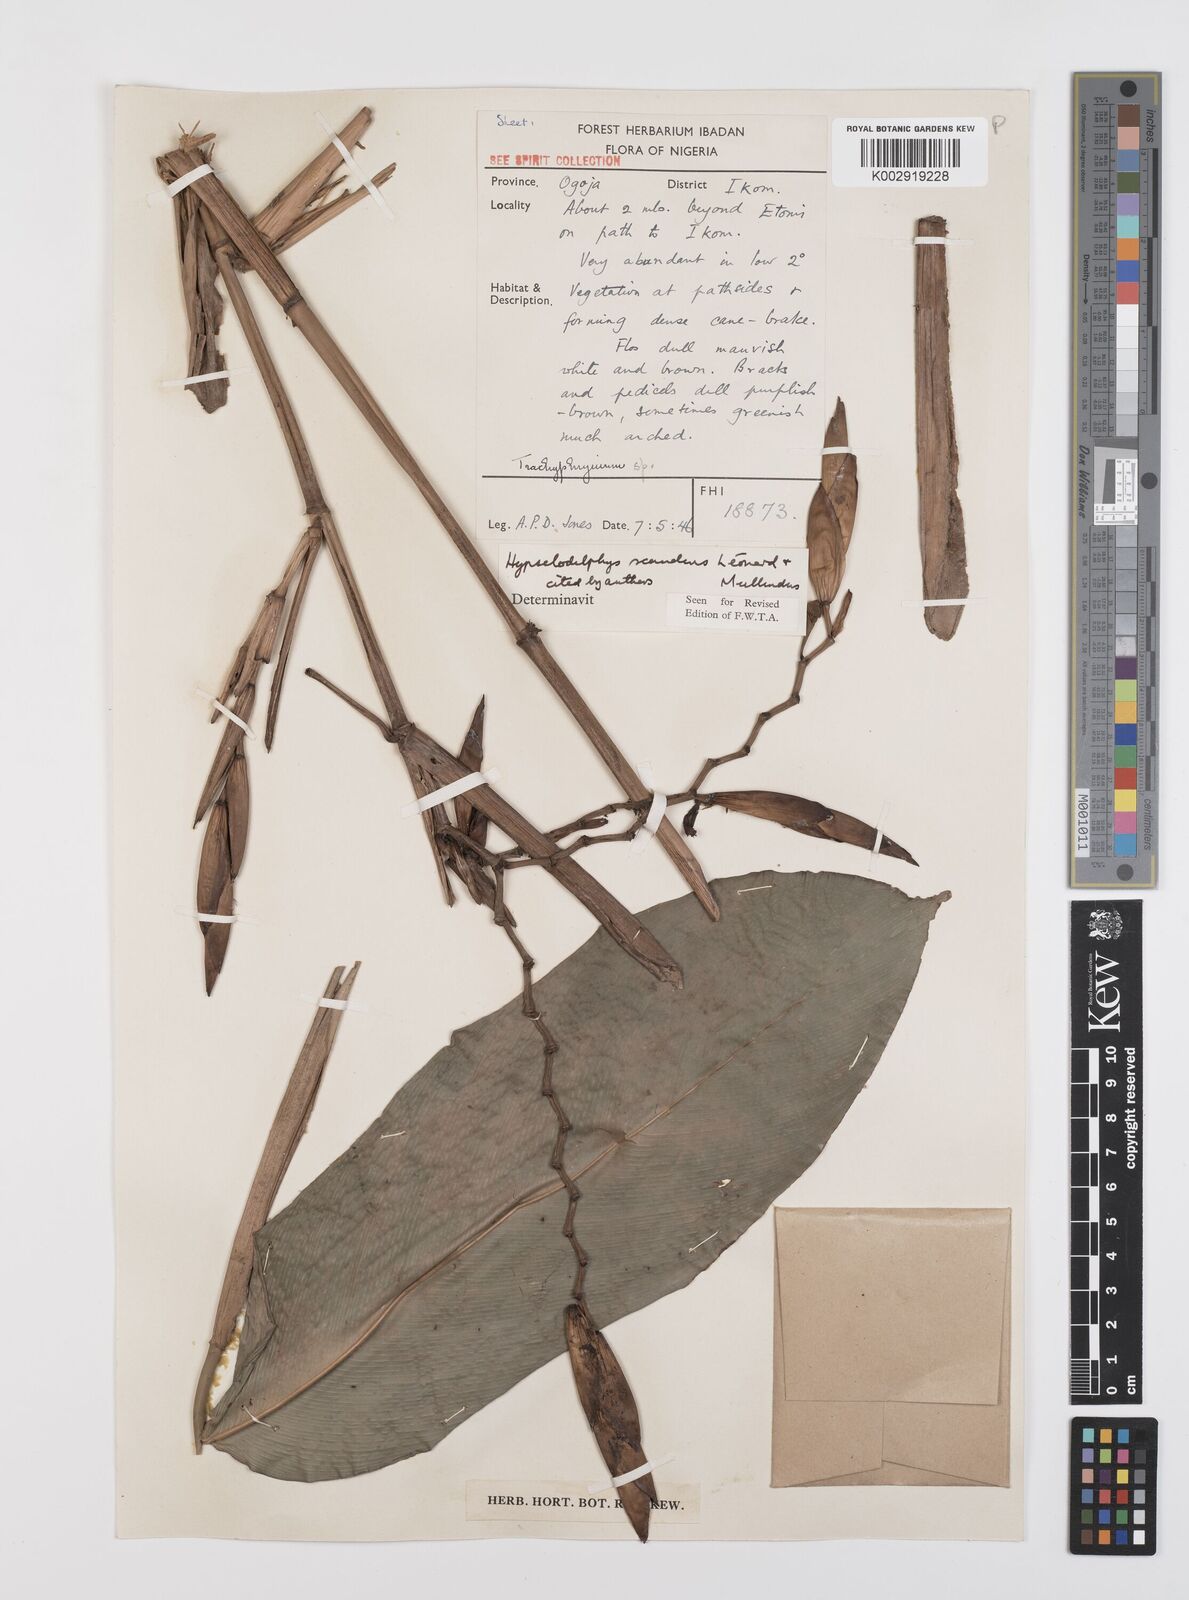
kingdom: Plantae
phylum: Tracheophyta
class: Liliopsida
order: Zingiberales
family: Marantaceae
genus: Hypselodelphys
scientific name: Hypselodelphys scandens
